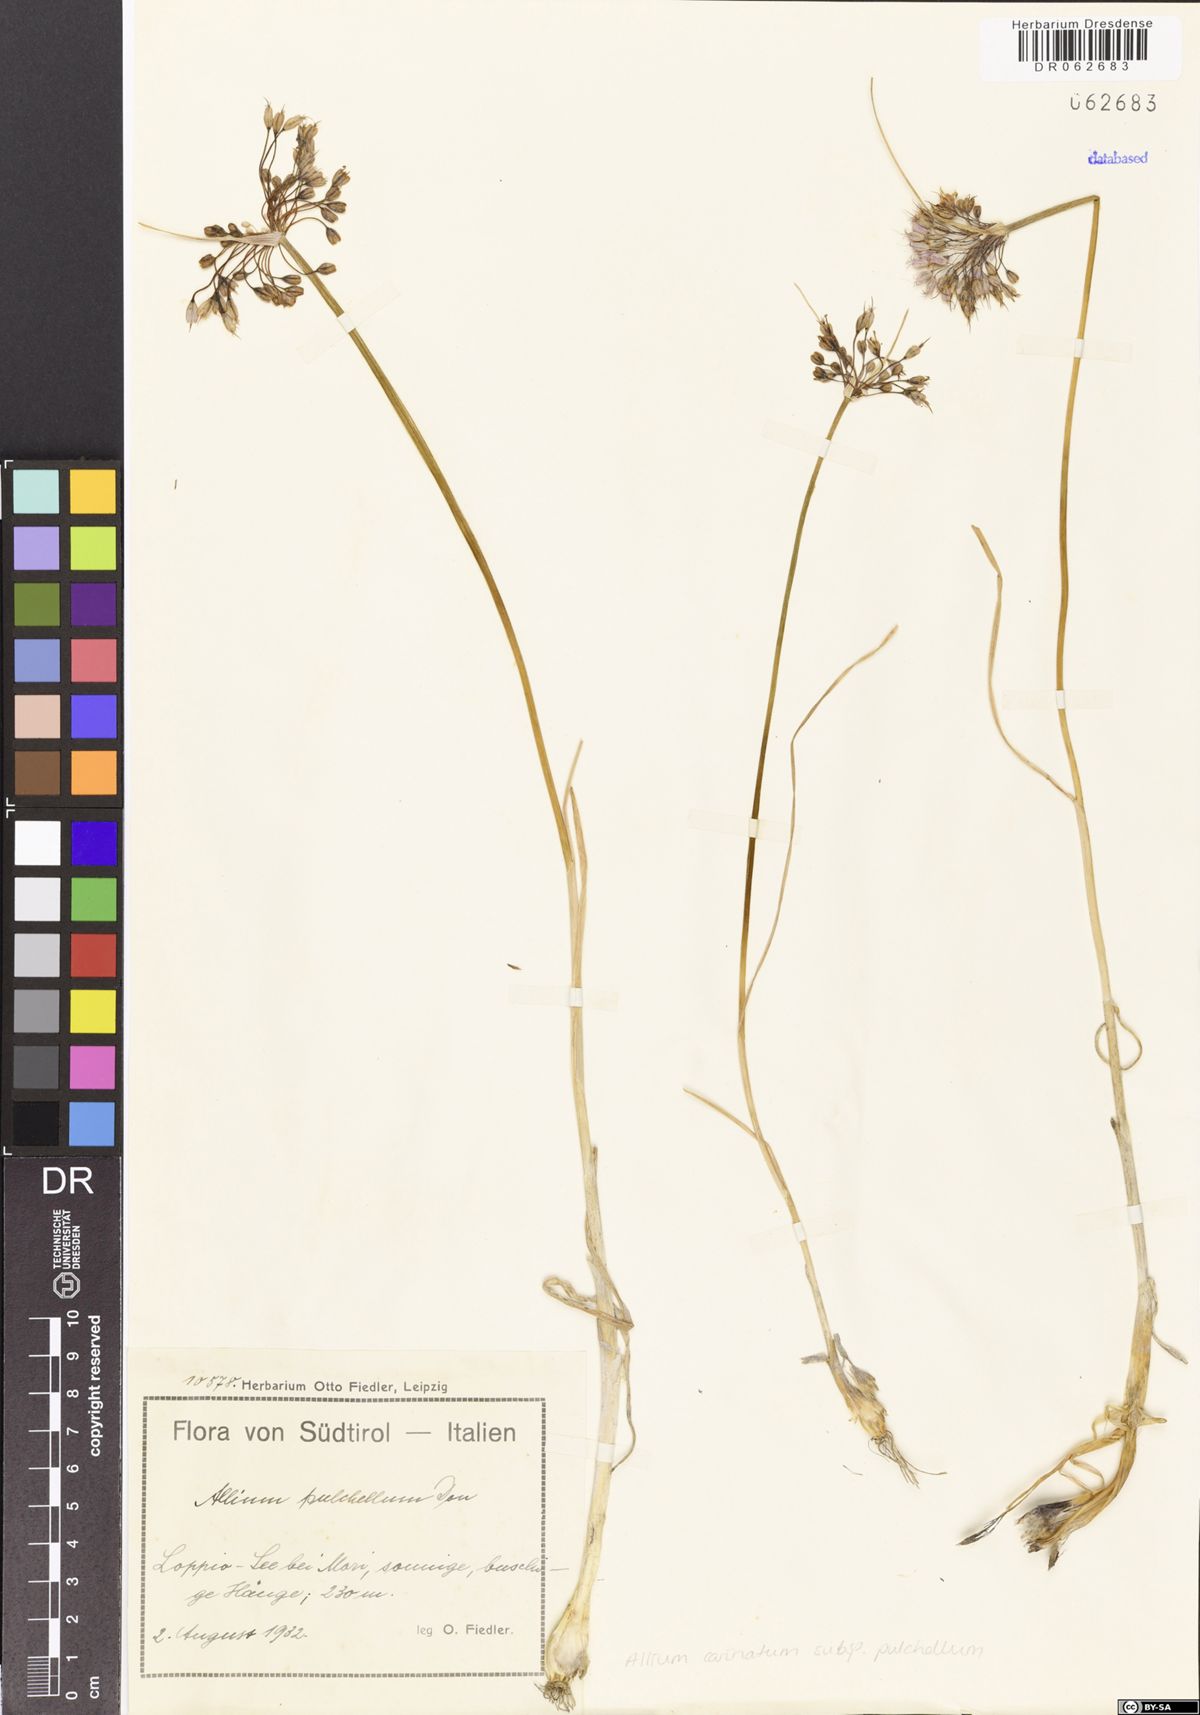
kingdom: Plantae
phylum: Tracheophyta
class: Liliopsida
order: Asparagales
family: Amaryllidaceae
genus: Allium
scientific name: Allium coloratum
